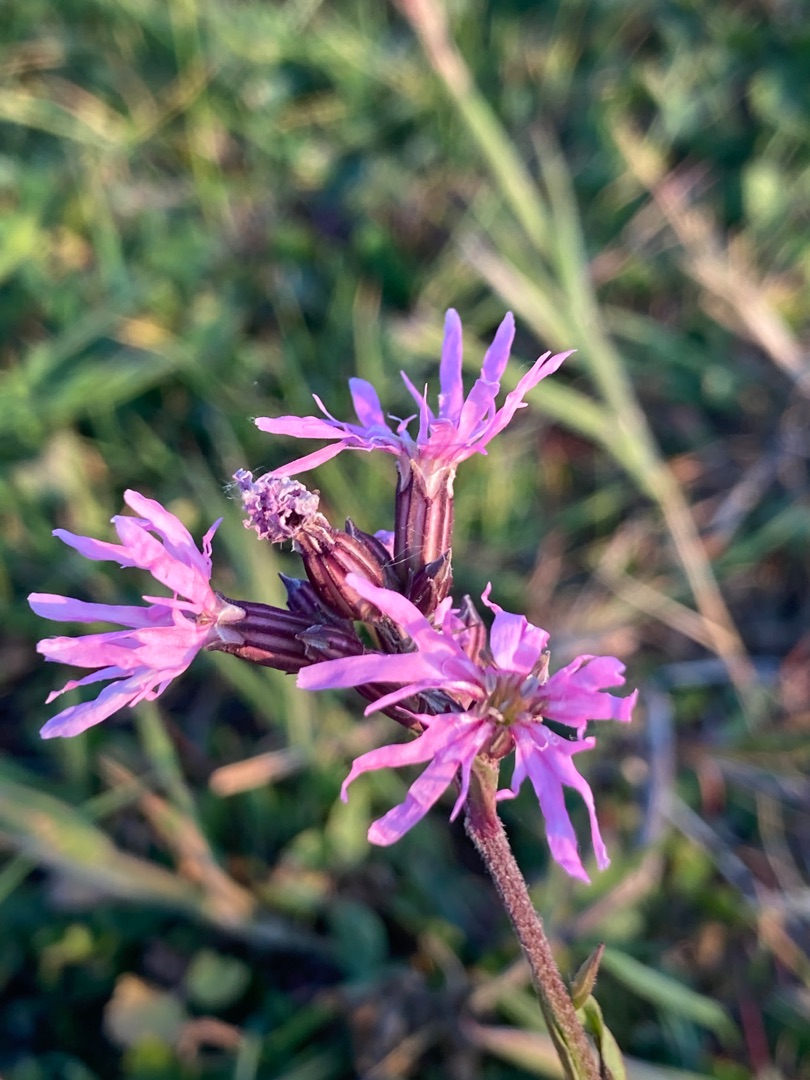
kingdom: Plantae
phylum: Tracheophyta
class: Magnoliopsida
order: Caryophyllales
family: Caryophyllaceae
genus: Silene
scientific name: Silene flos-cuculi
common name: Trævlekrone
